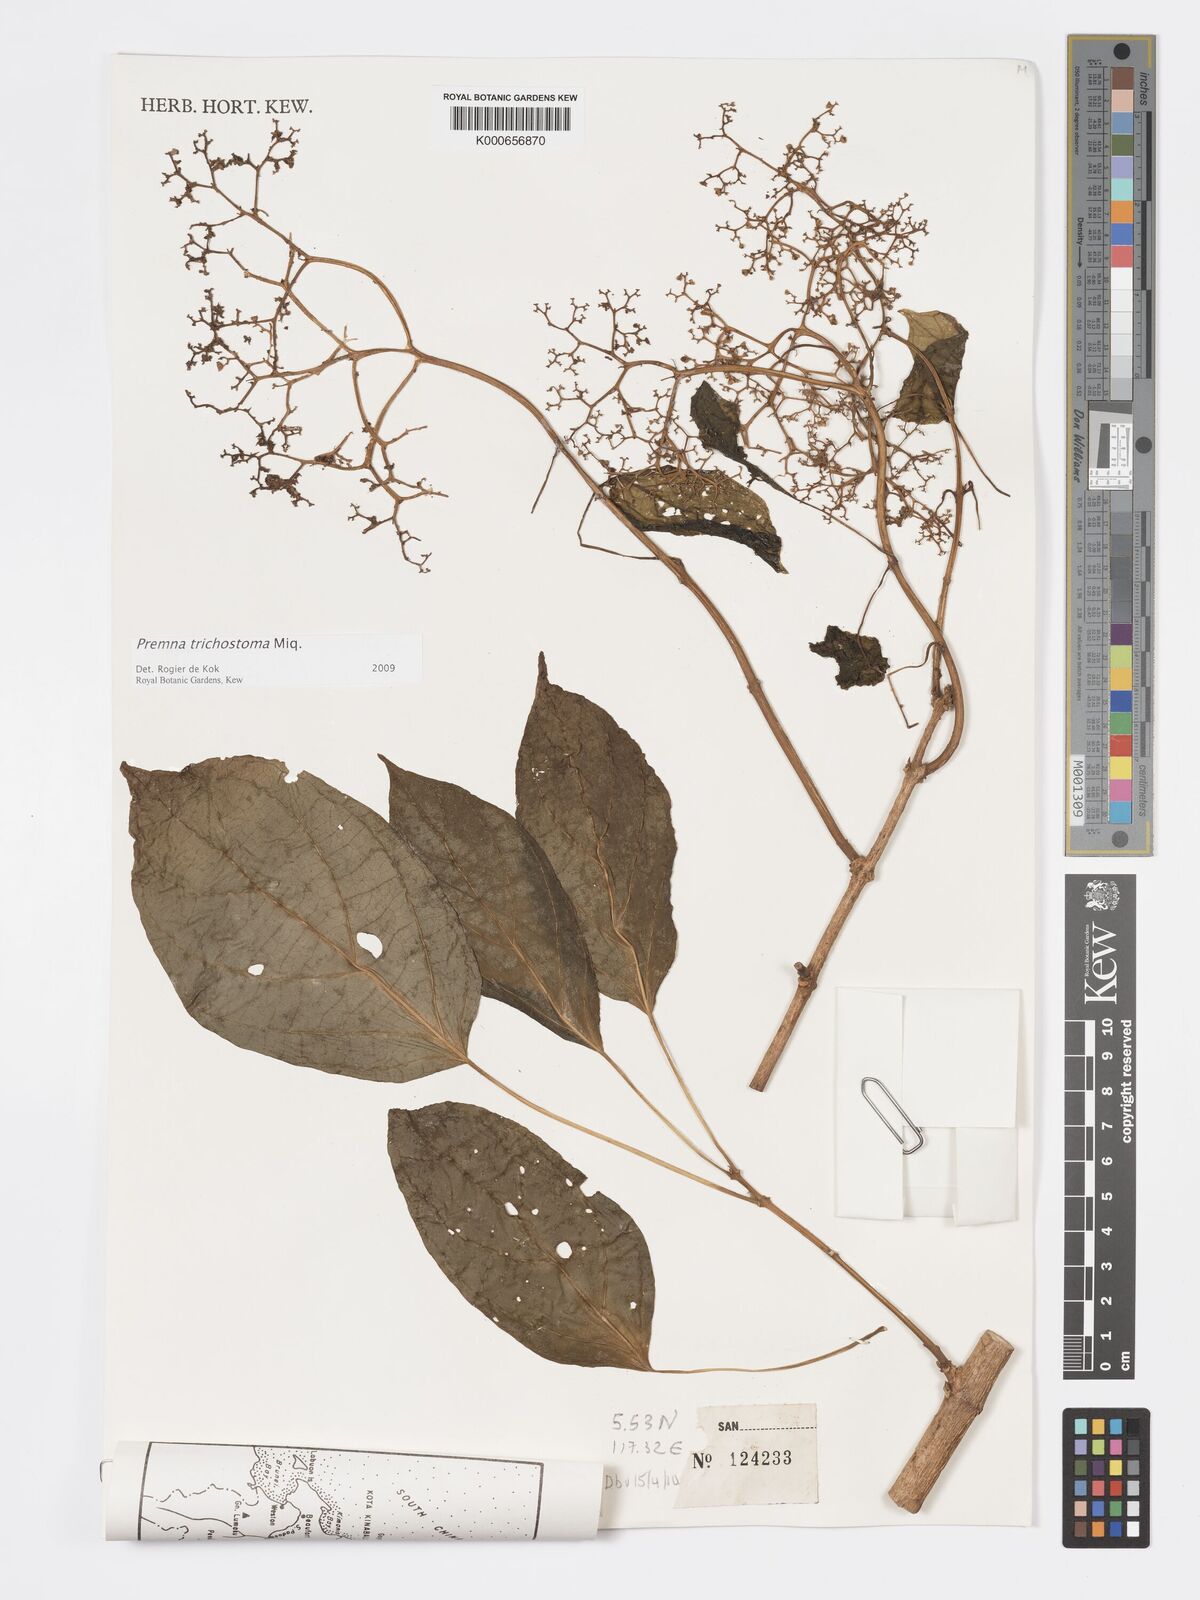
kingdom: Plantae
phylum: Tracheophyta
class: Magnoliopsida
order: Lamiales
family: Lamiaceae
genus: Premna
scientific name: Premna trichostoma
